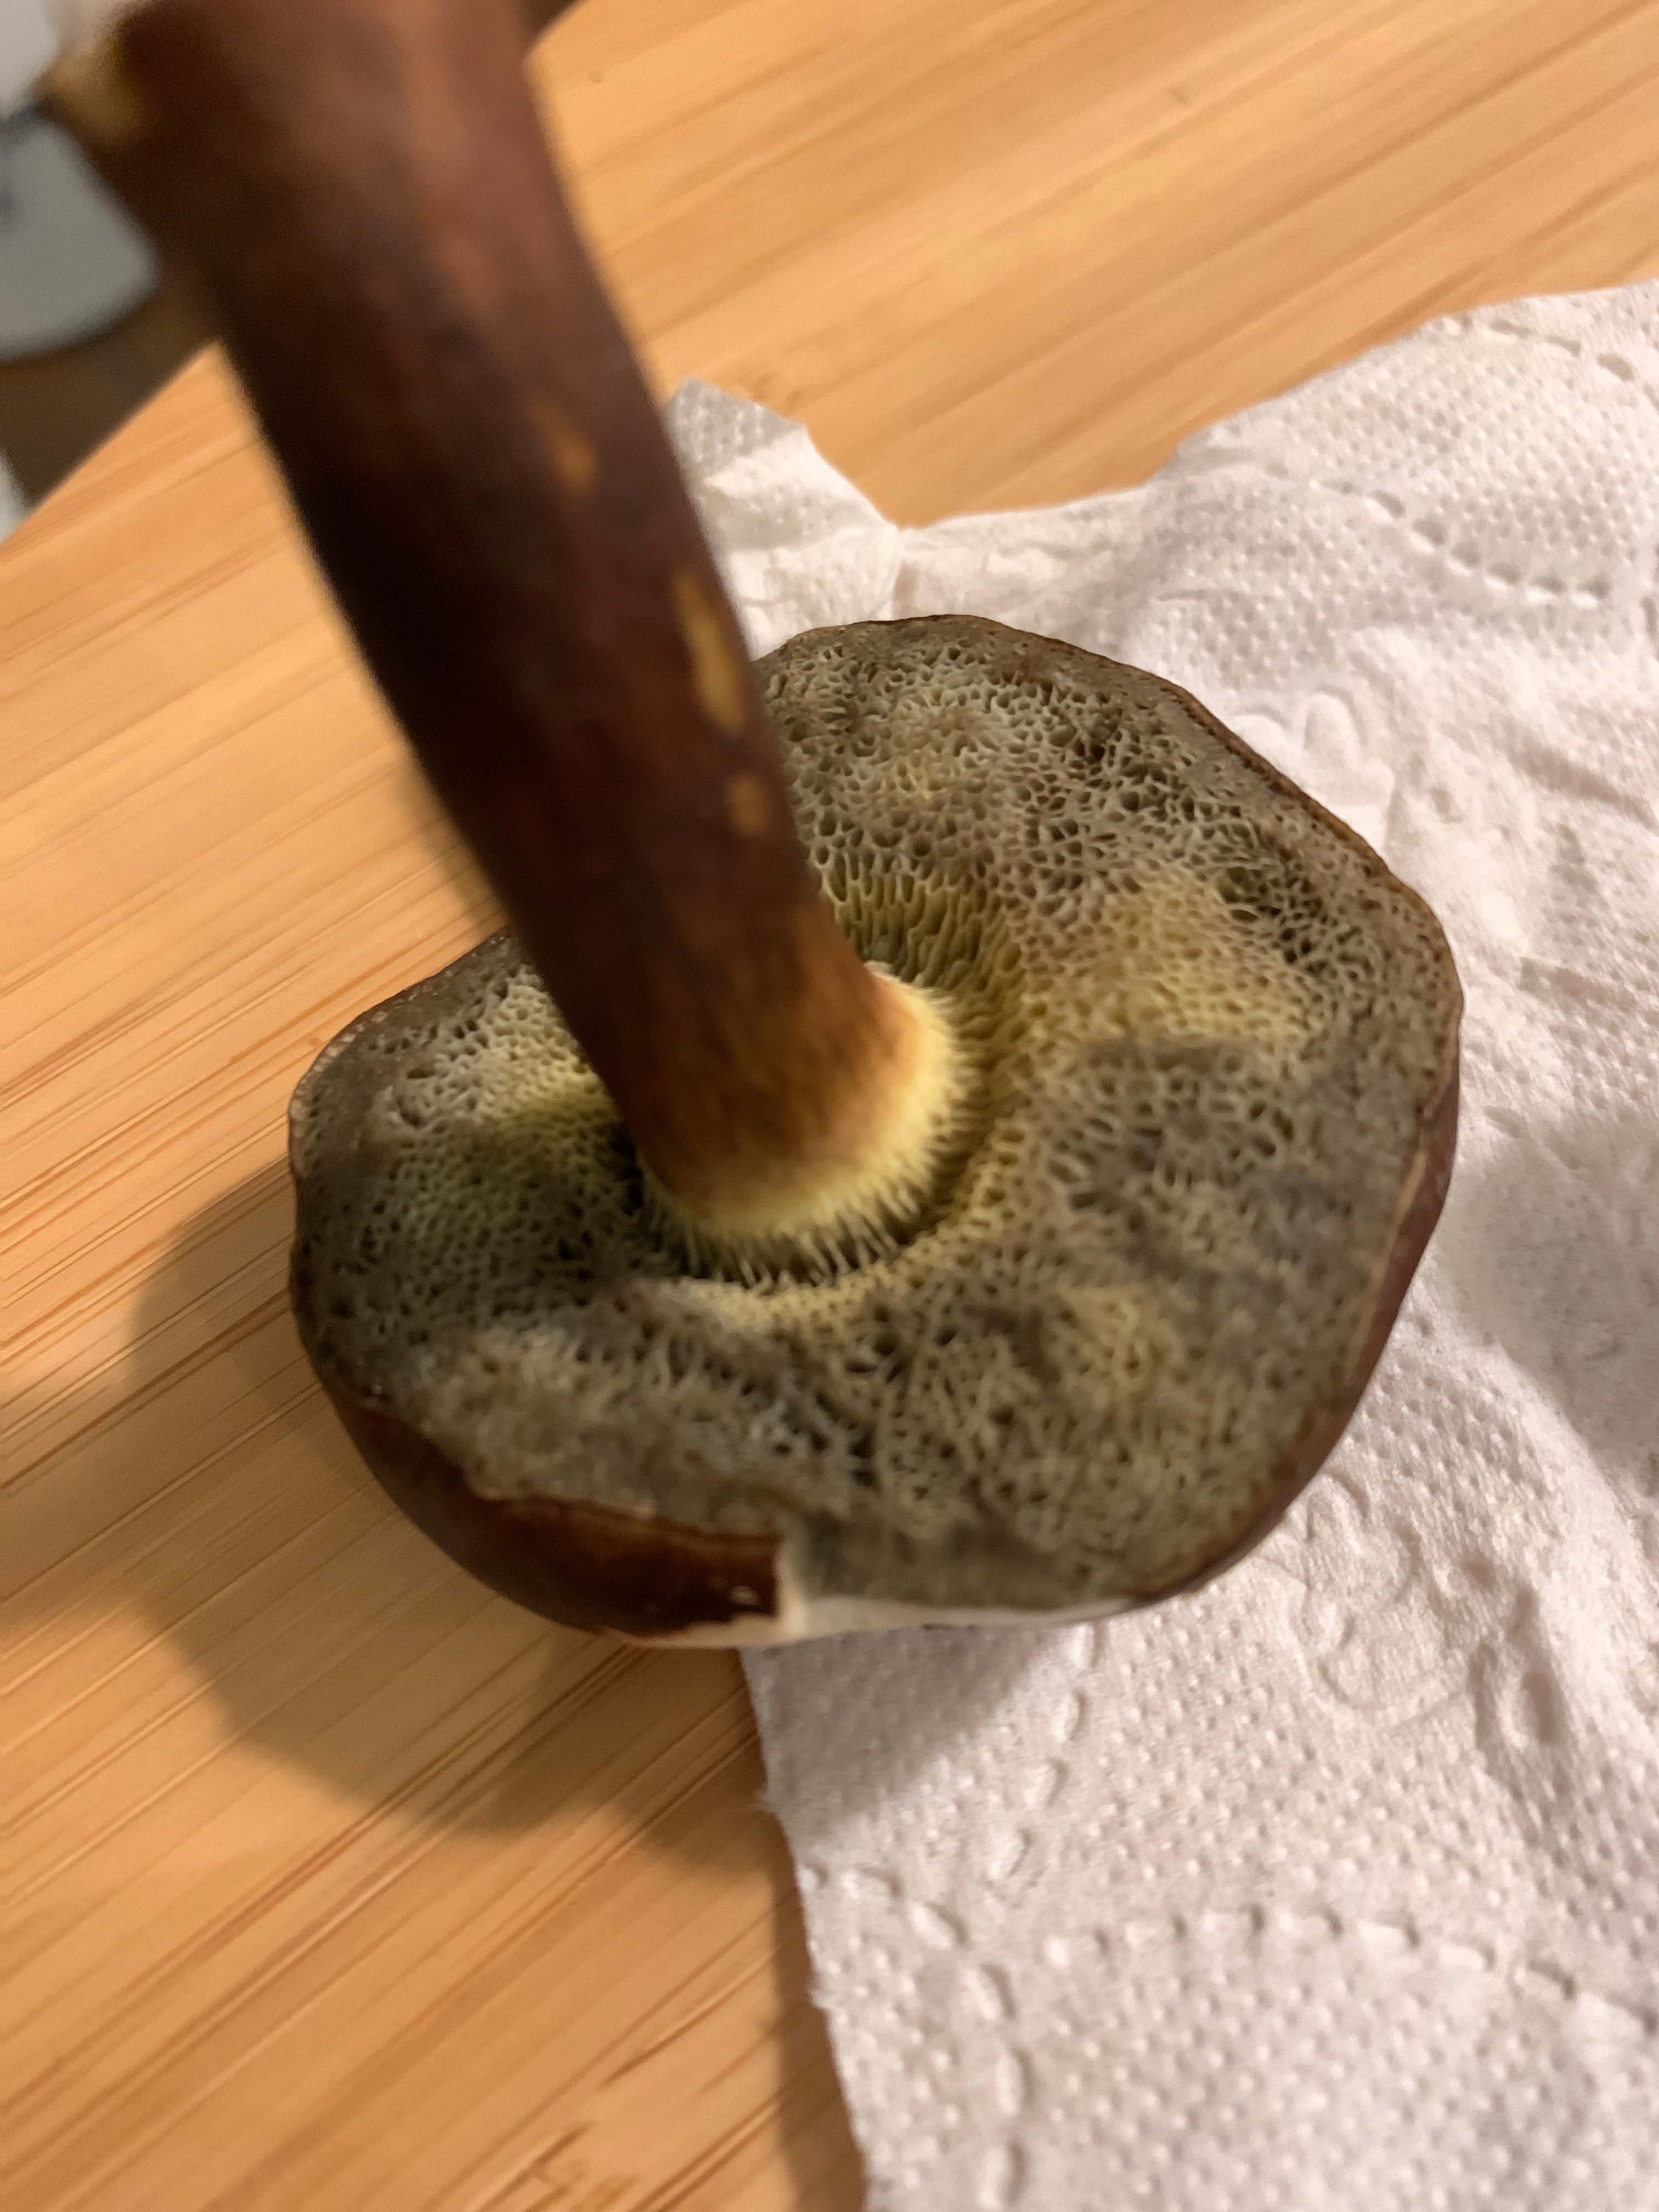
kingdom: Fungi
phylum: Basidiomycota
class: Agaricomycetes
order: Boletales
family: Boletaceae
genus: Imleria
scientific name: Imleria badia
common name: brunstokket rørhat
